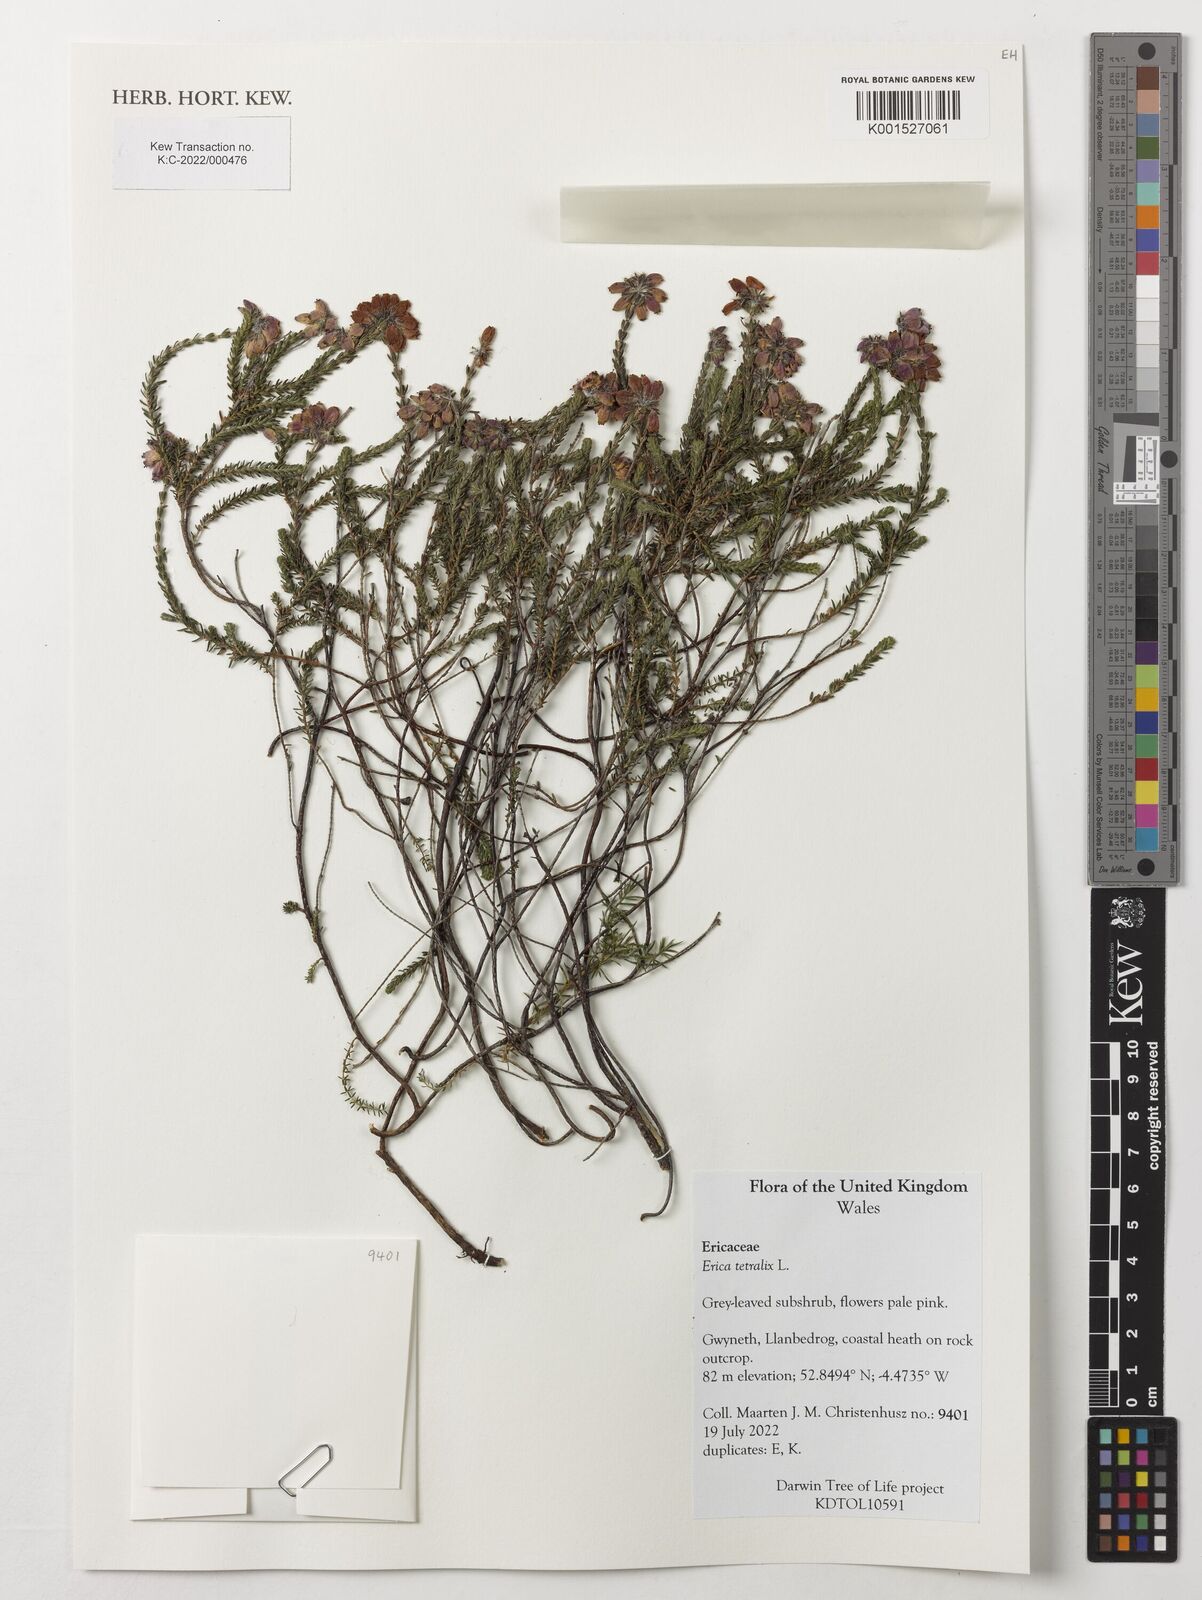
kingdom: Plantae
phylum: Tracheophyta
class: Magnoliopsida
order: Ericales
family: Ericaceae
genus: Erica
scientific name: Erica tetralix
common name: Cross-leaved heath
